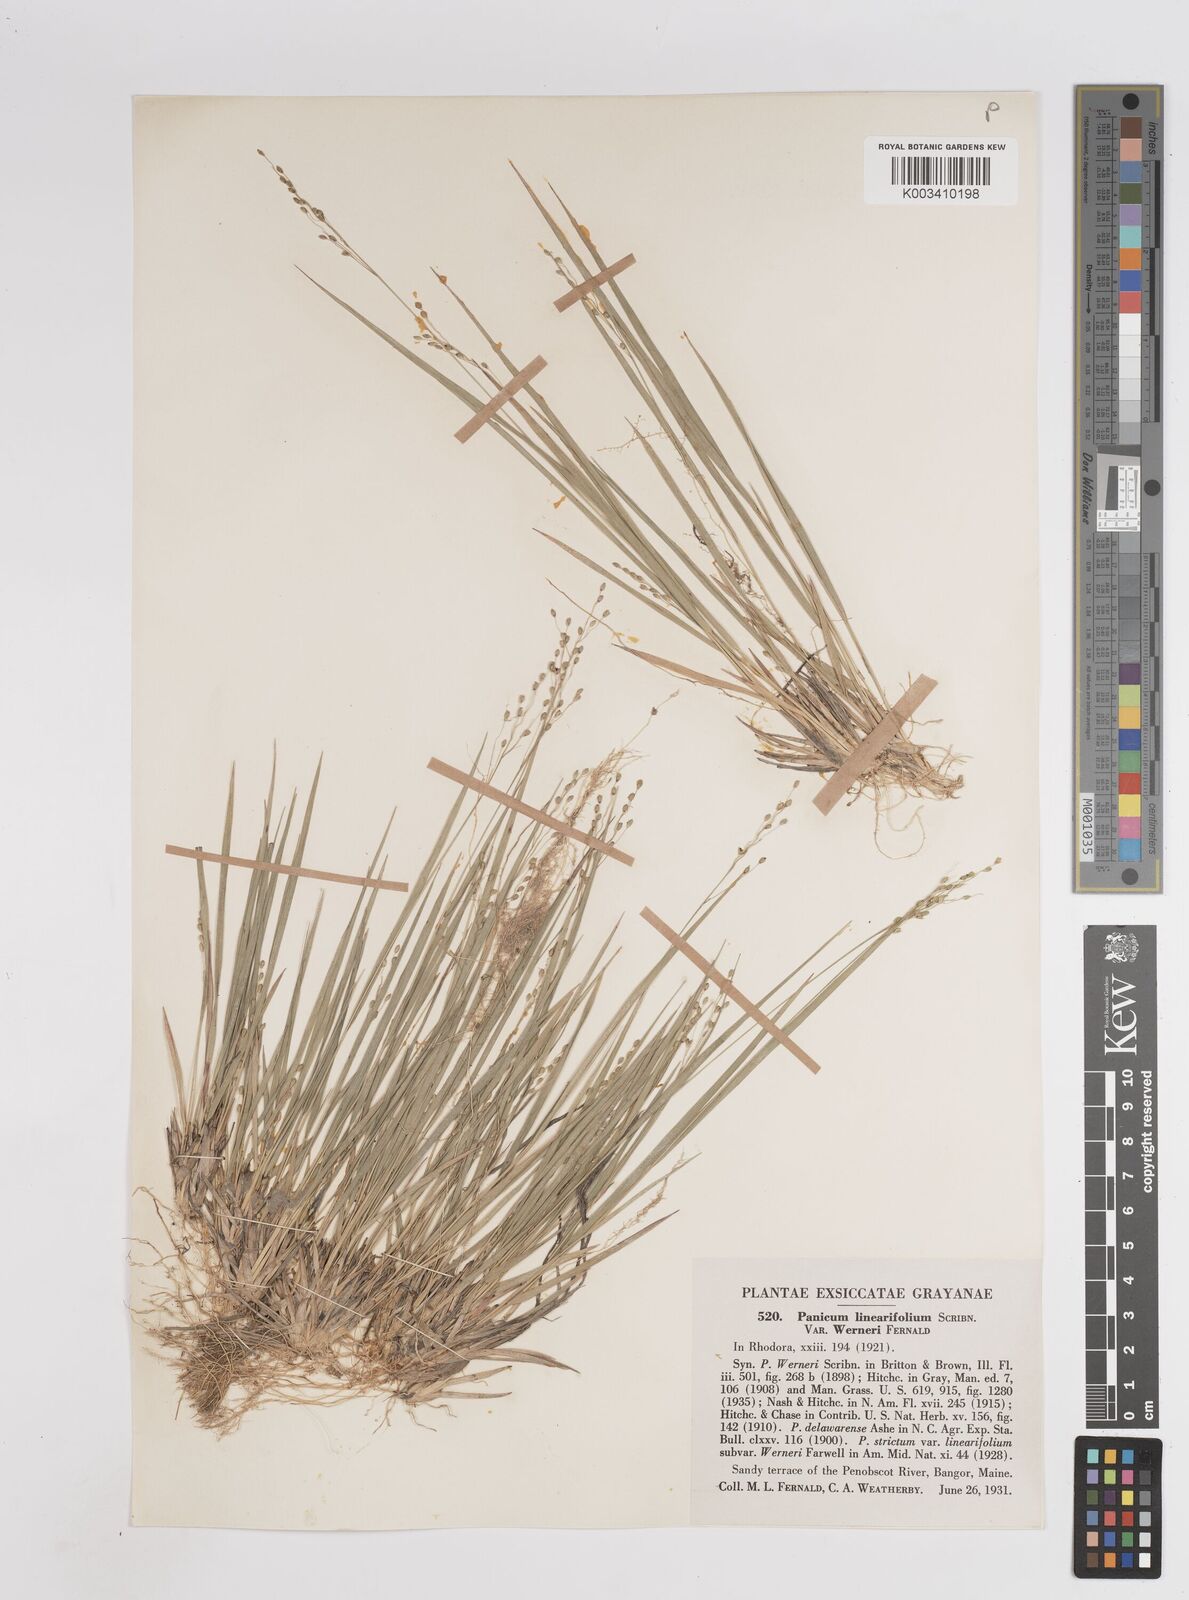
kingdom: Plantae
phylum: Tracheophyta
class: Liliopsida
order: Poales
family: Poaceae
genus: Dichanthelium
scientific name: Dichanthelium linearifolium
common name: Linear-leaved panicgrass
